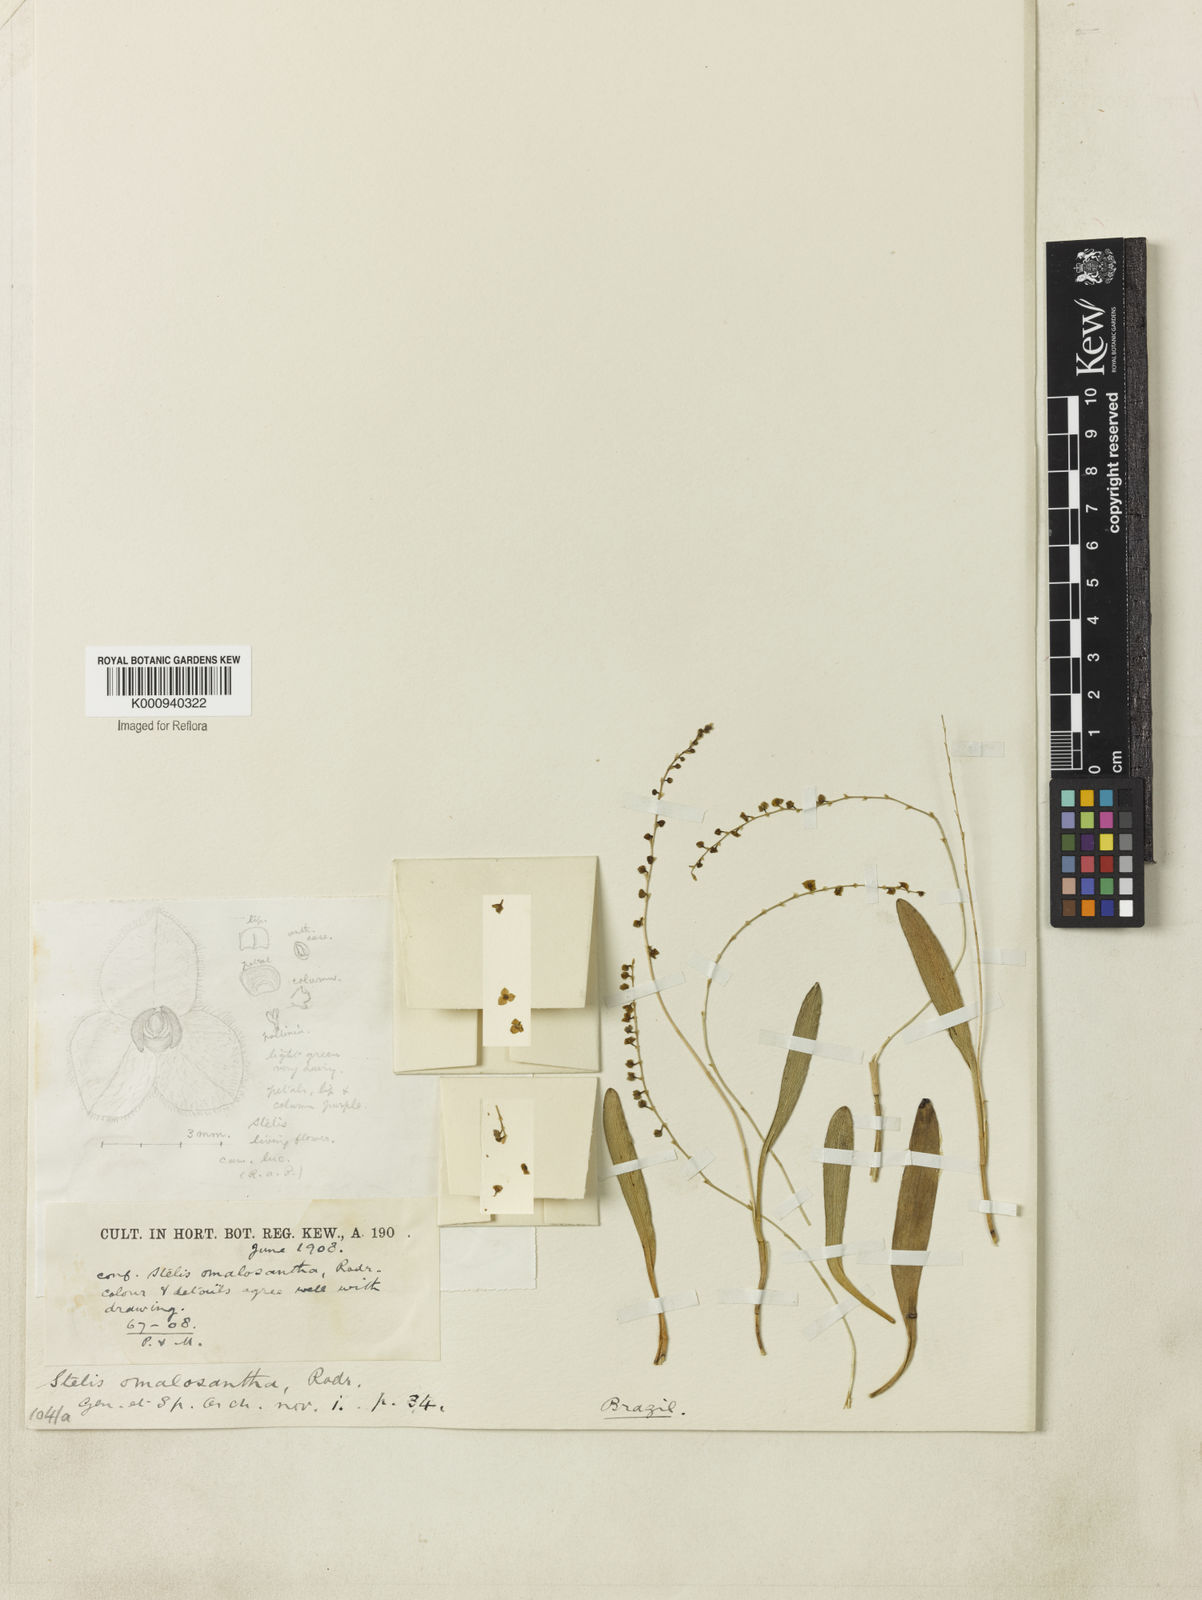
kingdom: Plantae
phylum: Tracheophyta
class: Liliopsida
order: Asparagales
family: Orchidaceae
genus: Stelis
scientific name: Stelis pauciflora
